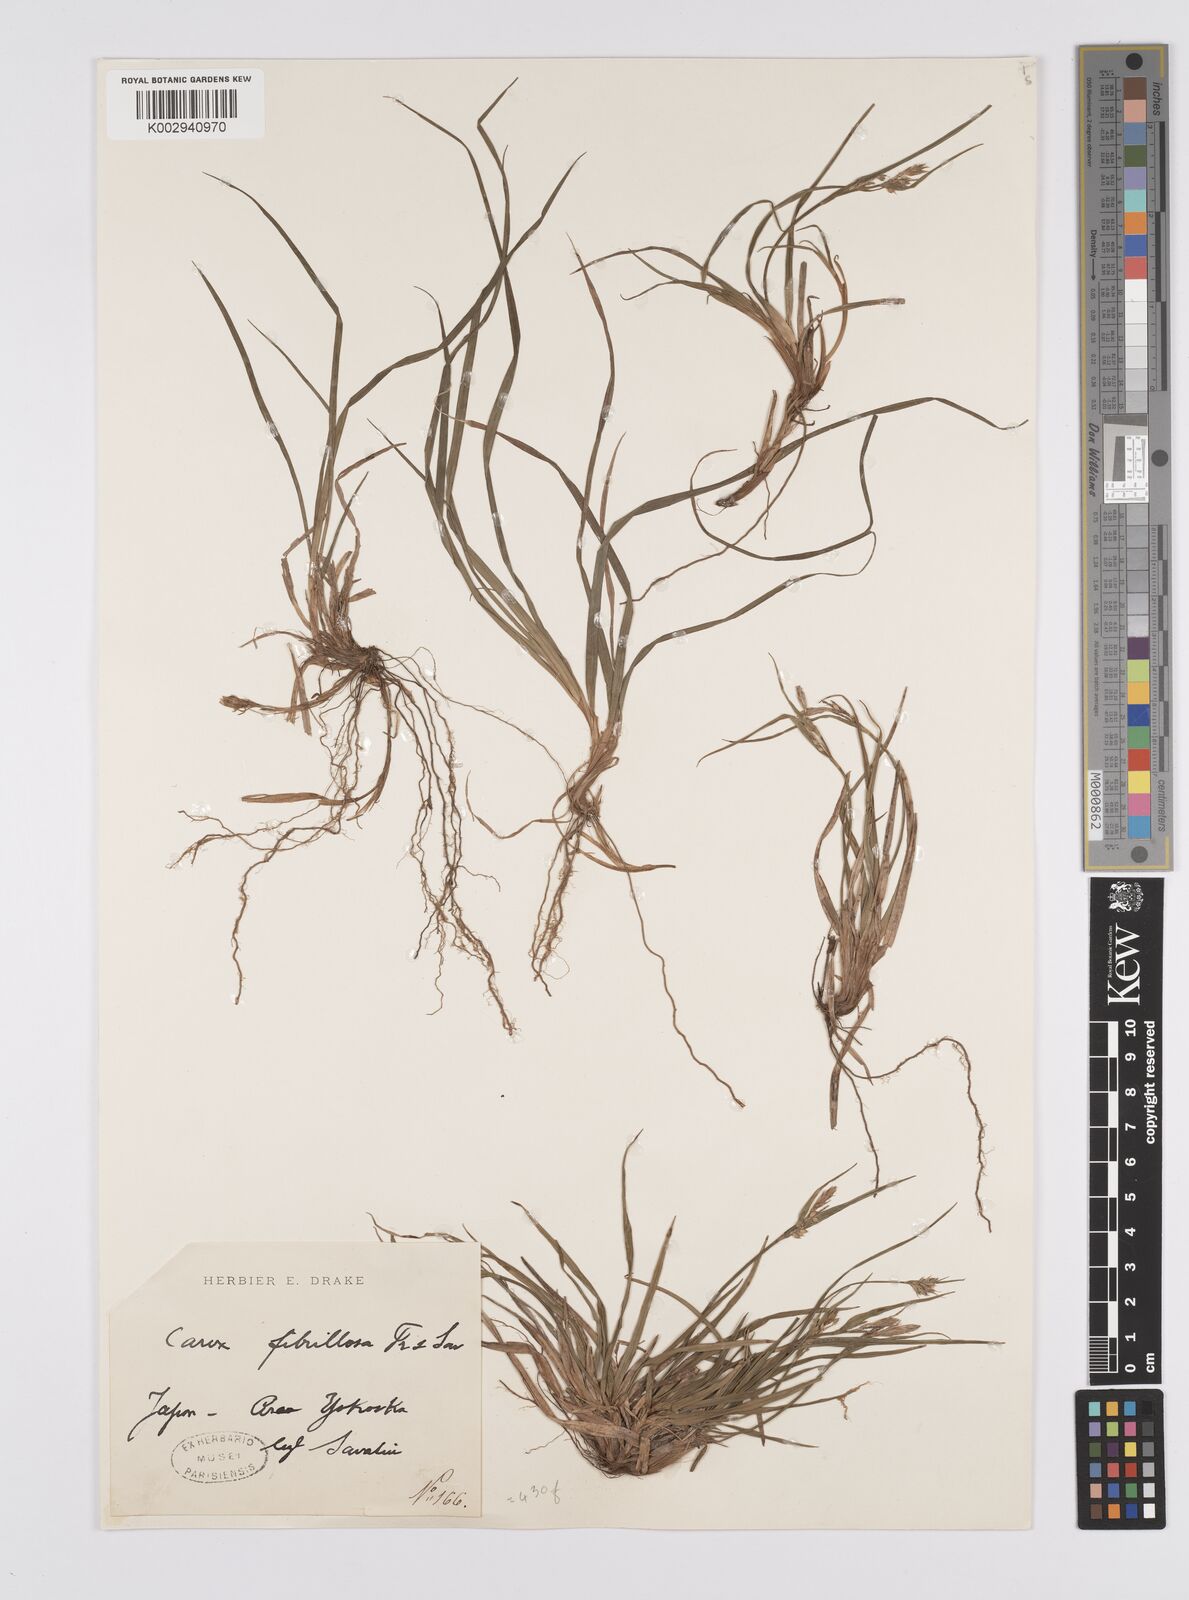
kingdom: Plantae
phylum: Tracheophyta
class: Liliopsida
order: Poales
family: Cyperaceae
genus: Carex
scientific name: Carex fibrillosa
